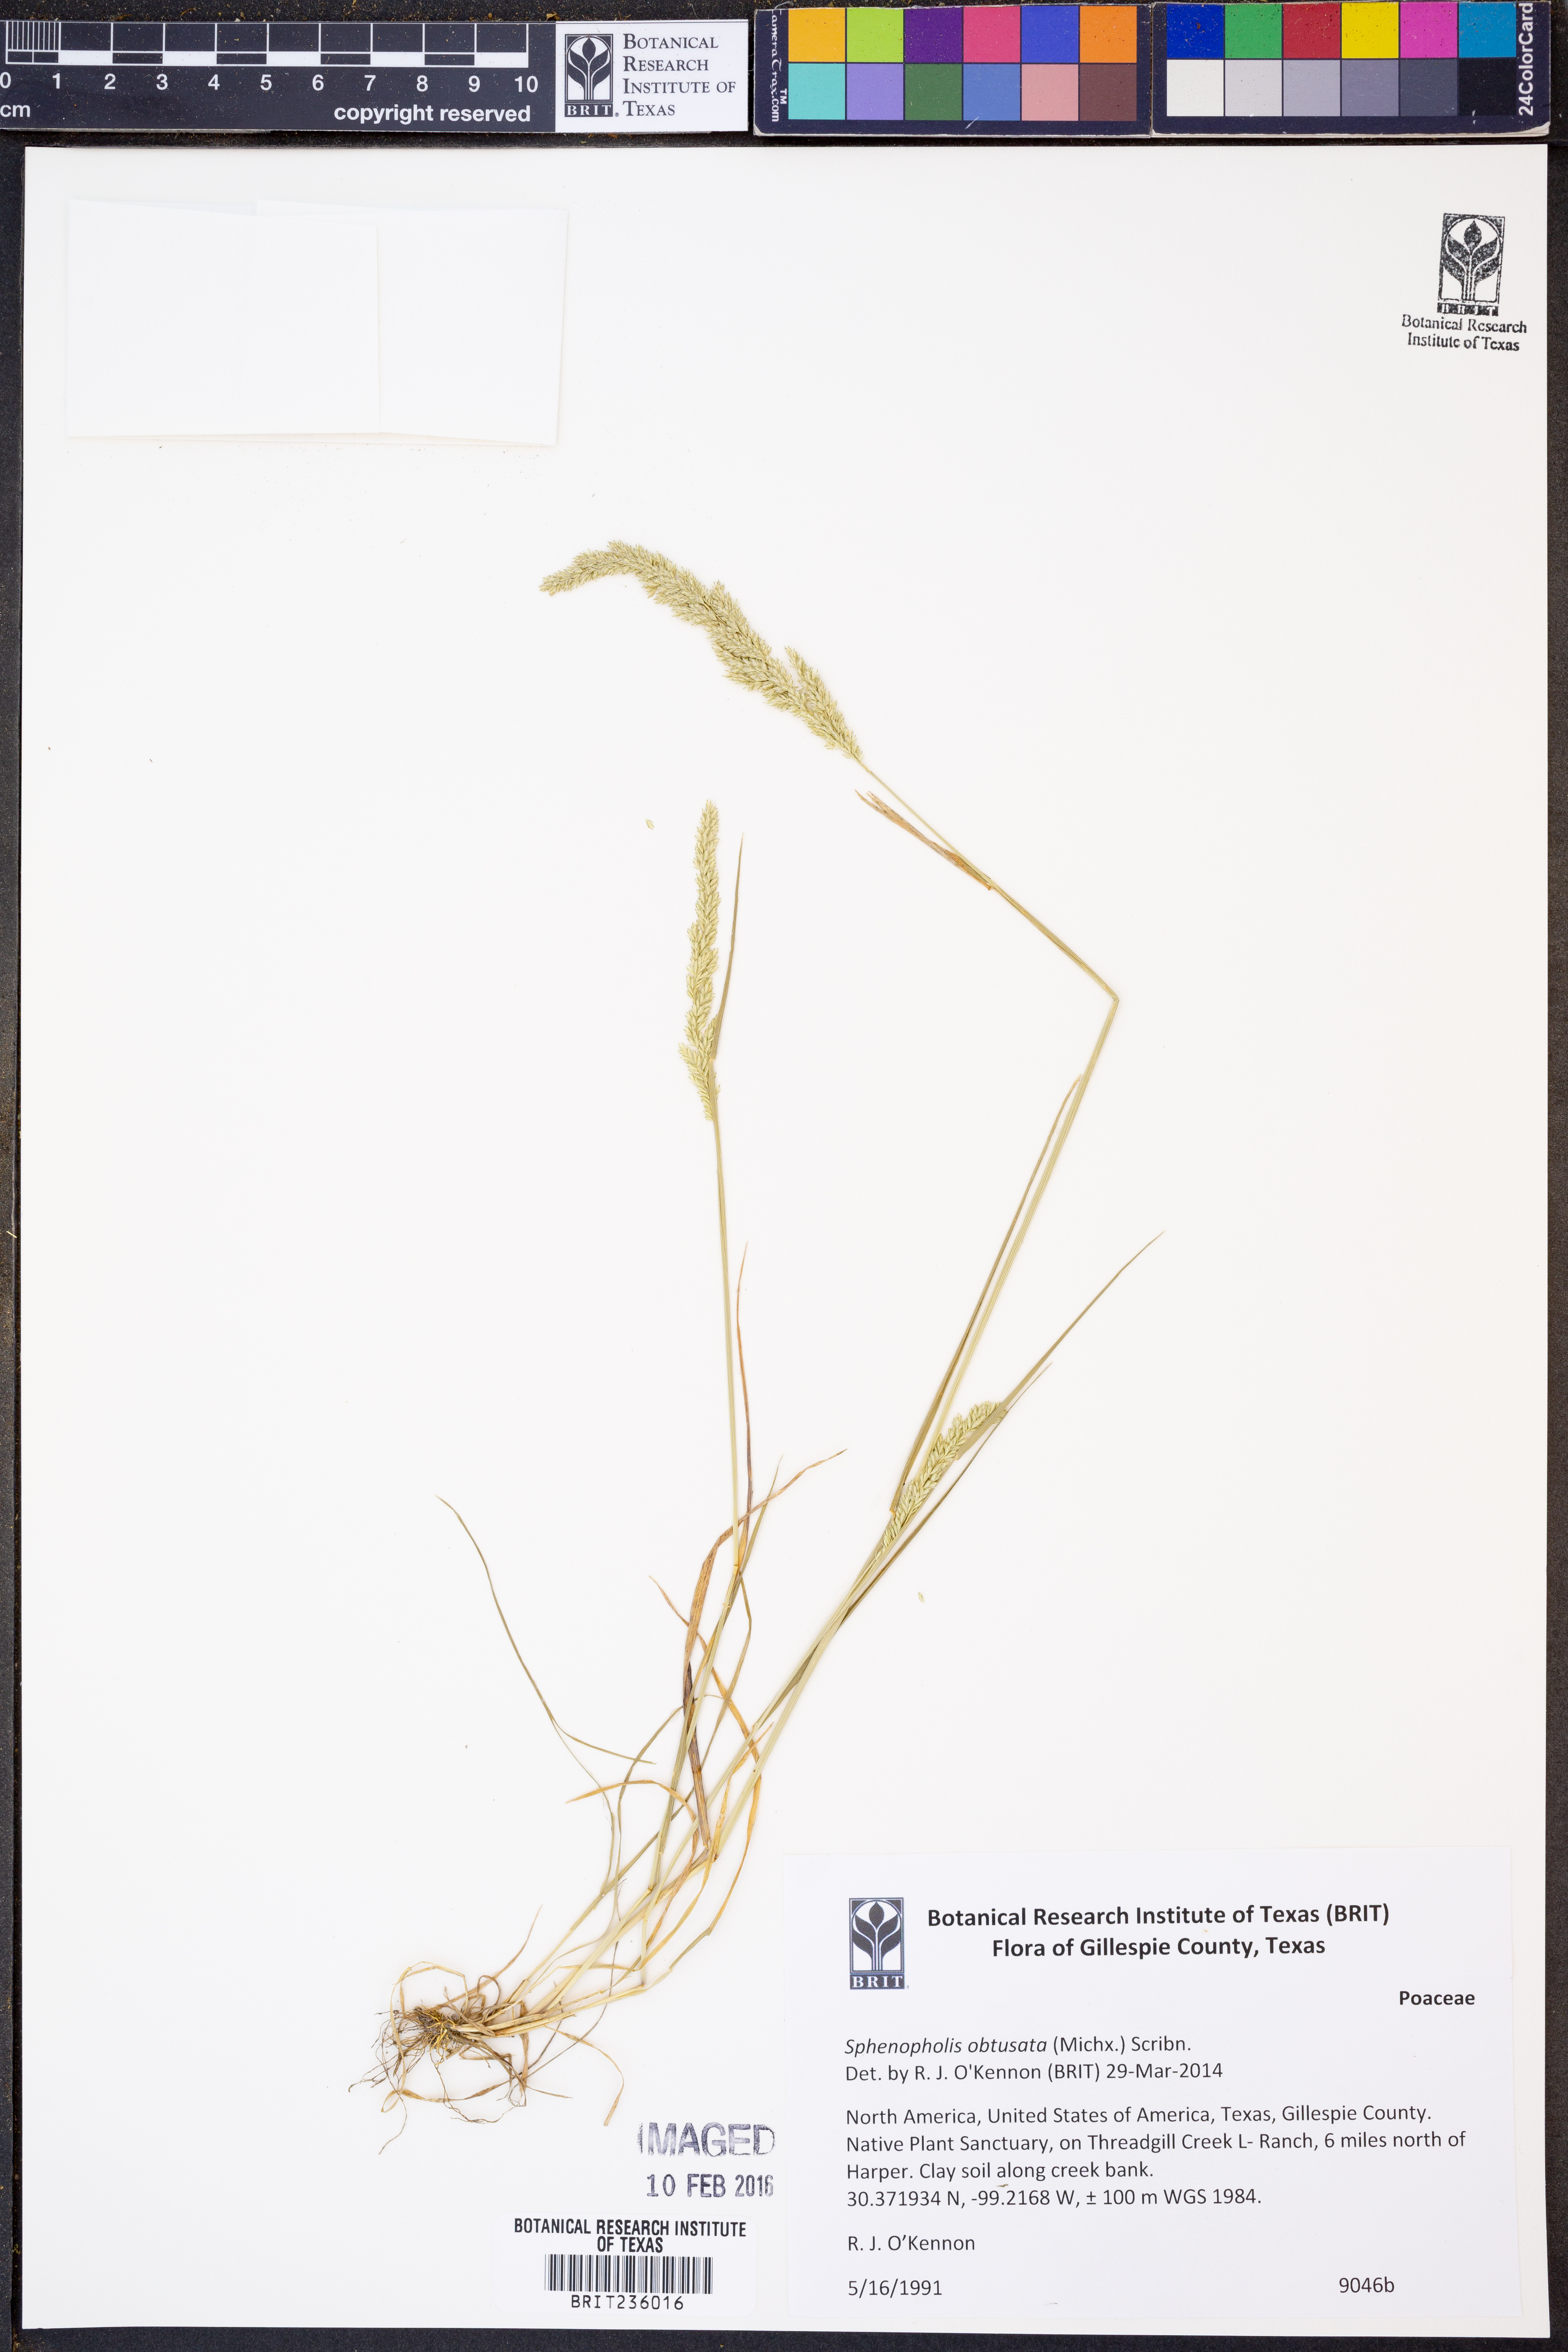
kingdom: Plantae
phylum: Tracheophyta
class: Liliopsida
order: Poales
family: Poaceae
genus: Sphenopholis
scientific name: Sphenopholis obtusata
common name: Prairie grass
